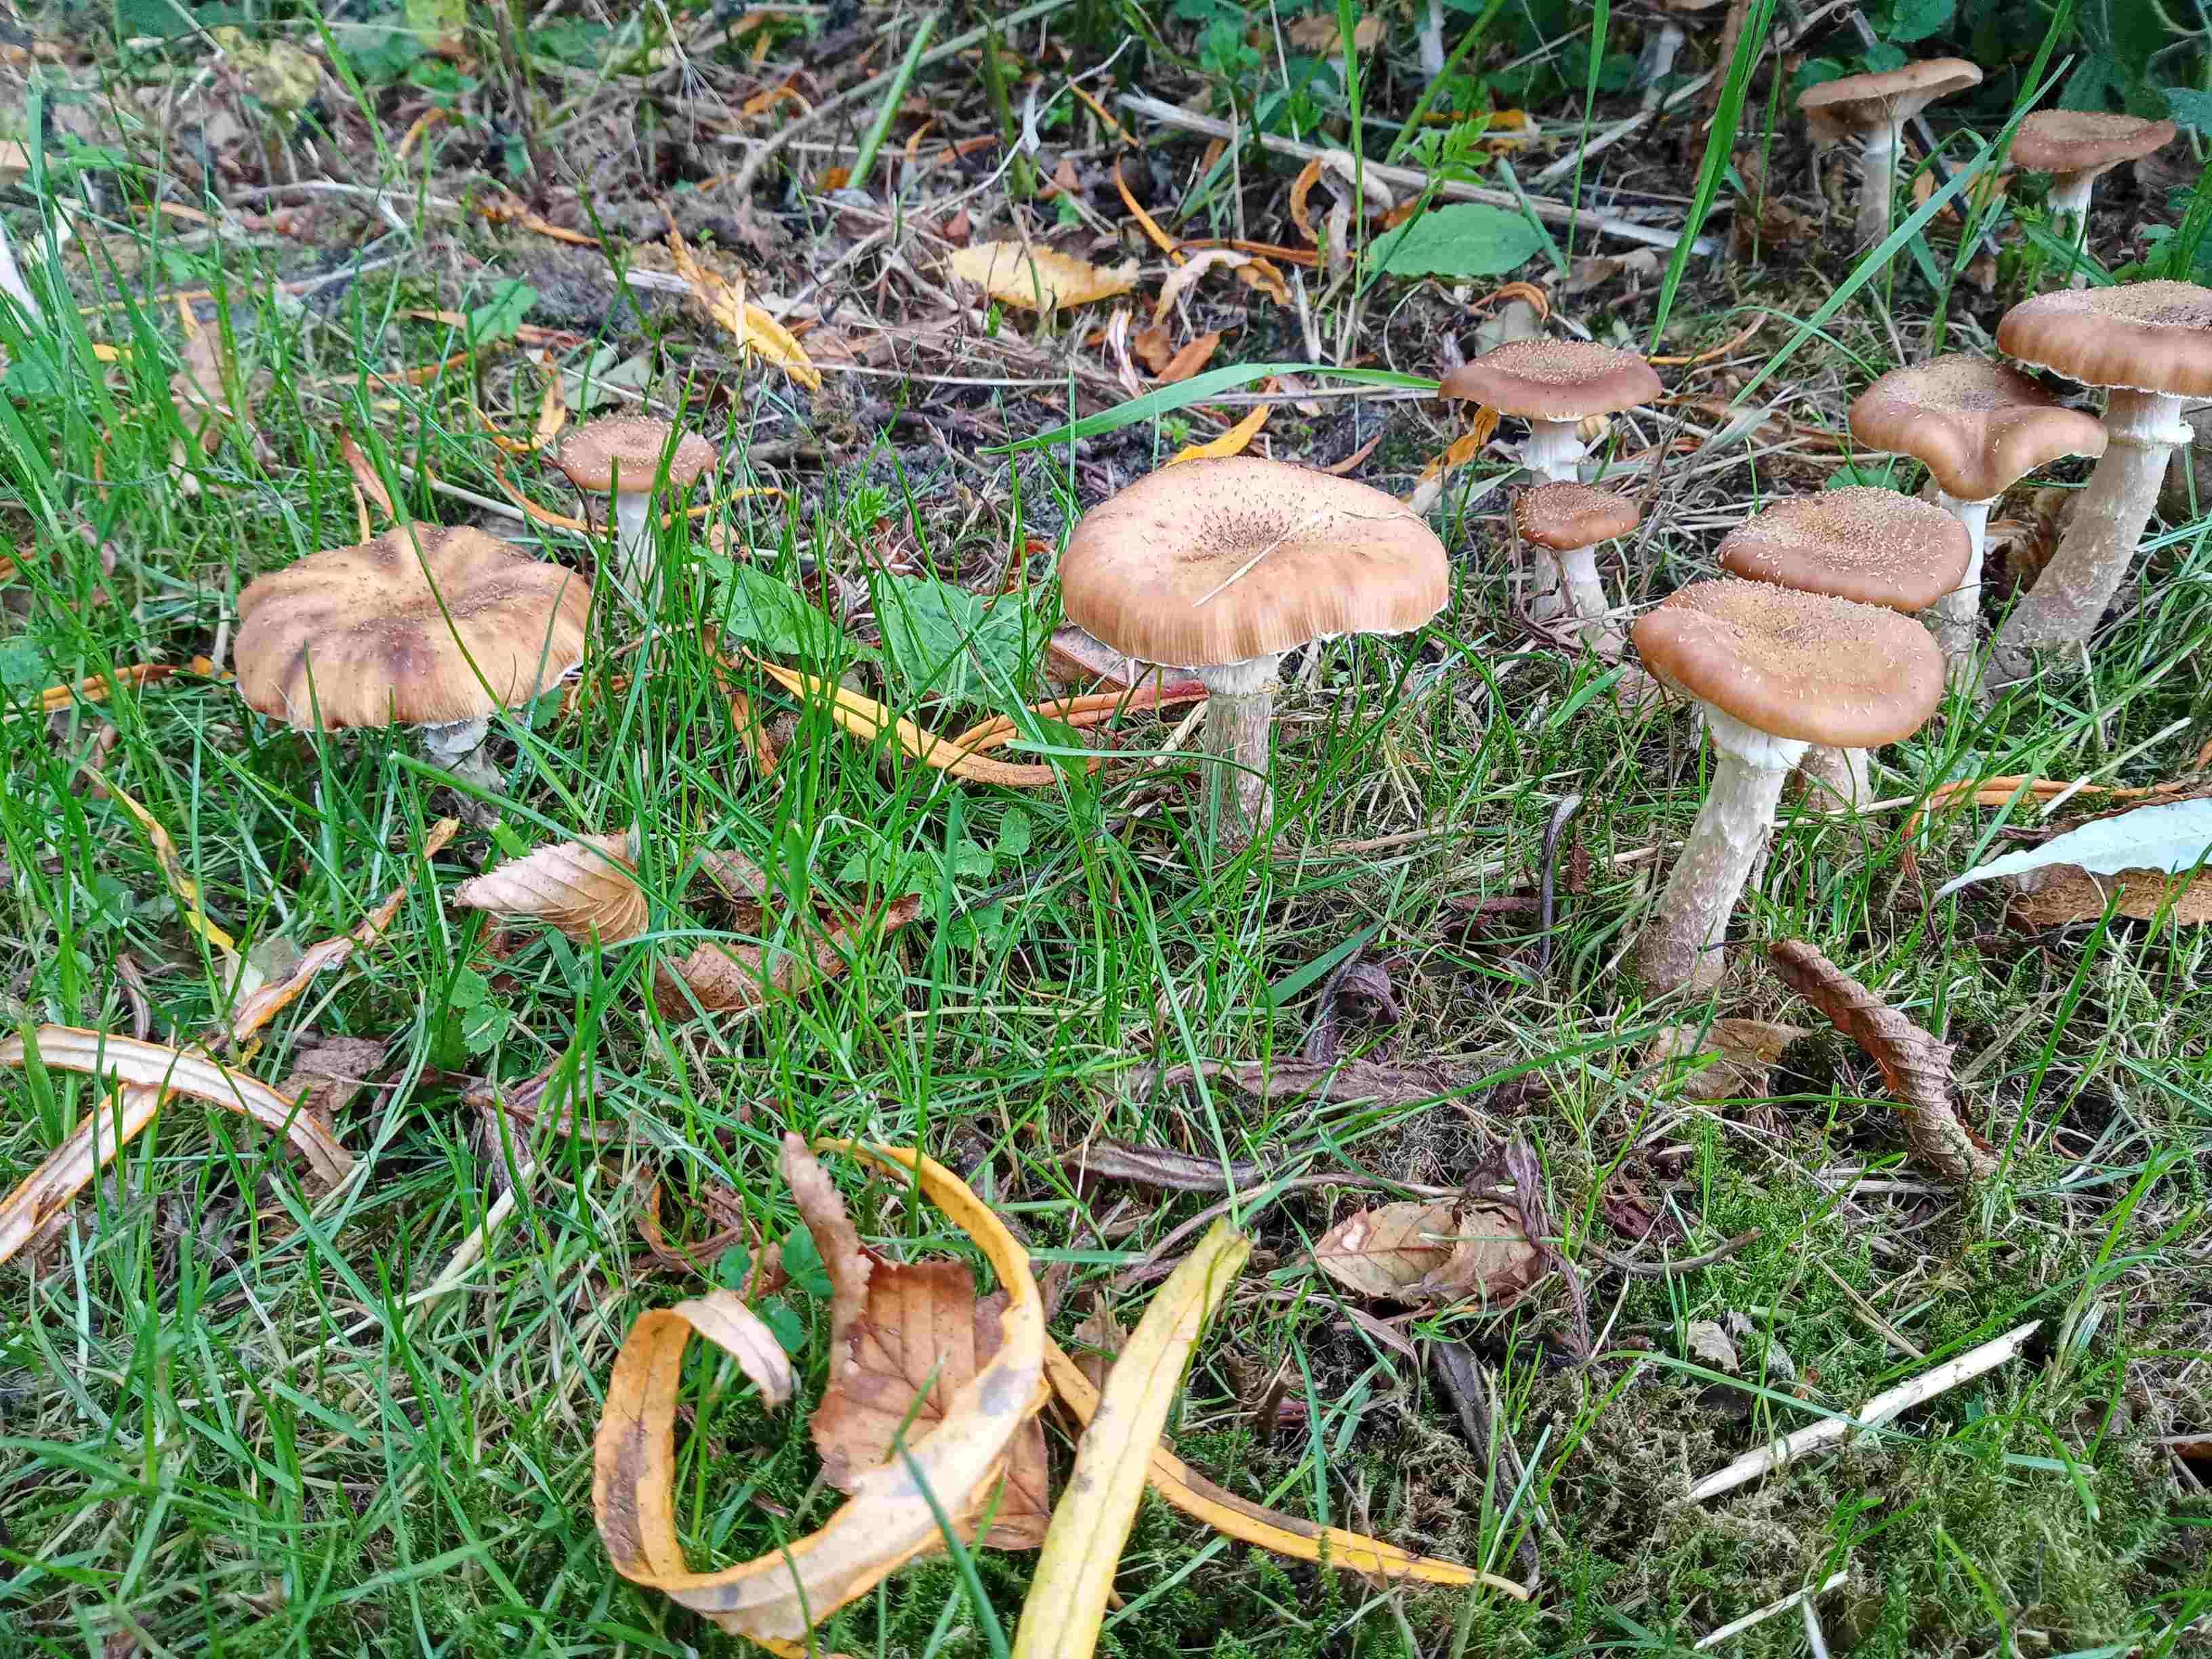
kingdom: Fungi
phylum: Basidiomycota
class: Agaricomycetes
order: Agaricales
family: Physalacriaceae
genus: Armillaria
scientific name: Armillaria lutea
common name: køllestokket honningsvamp
